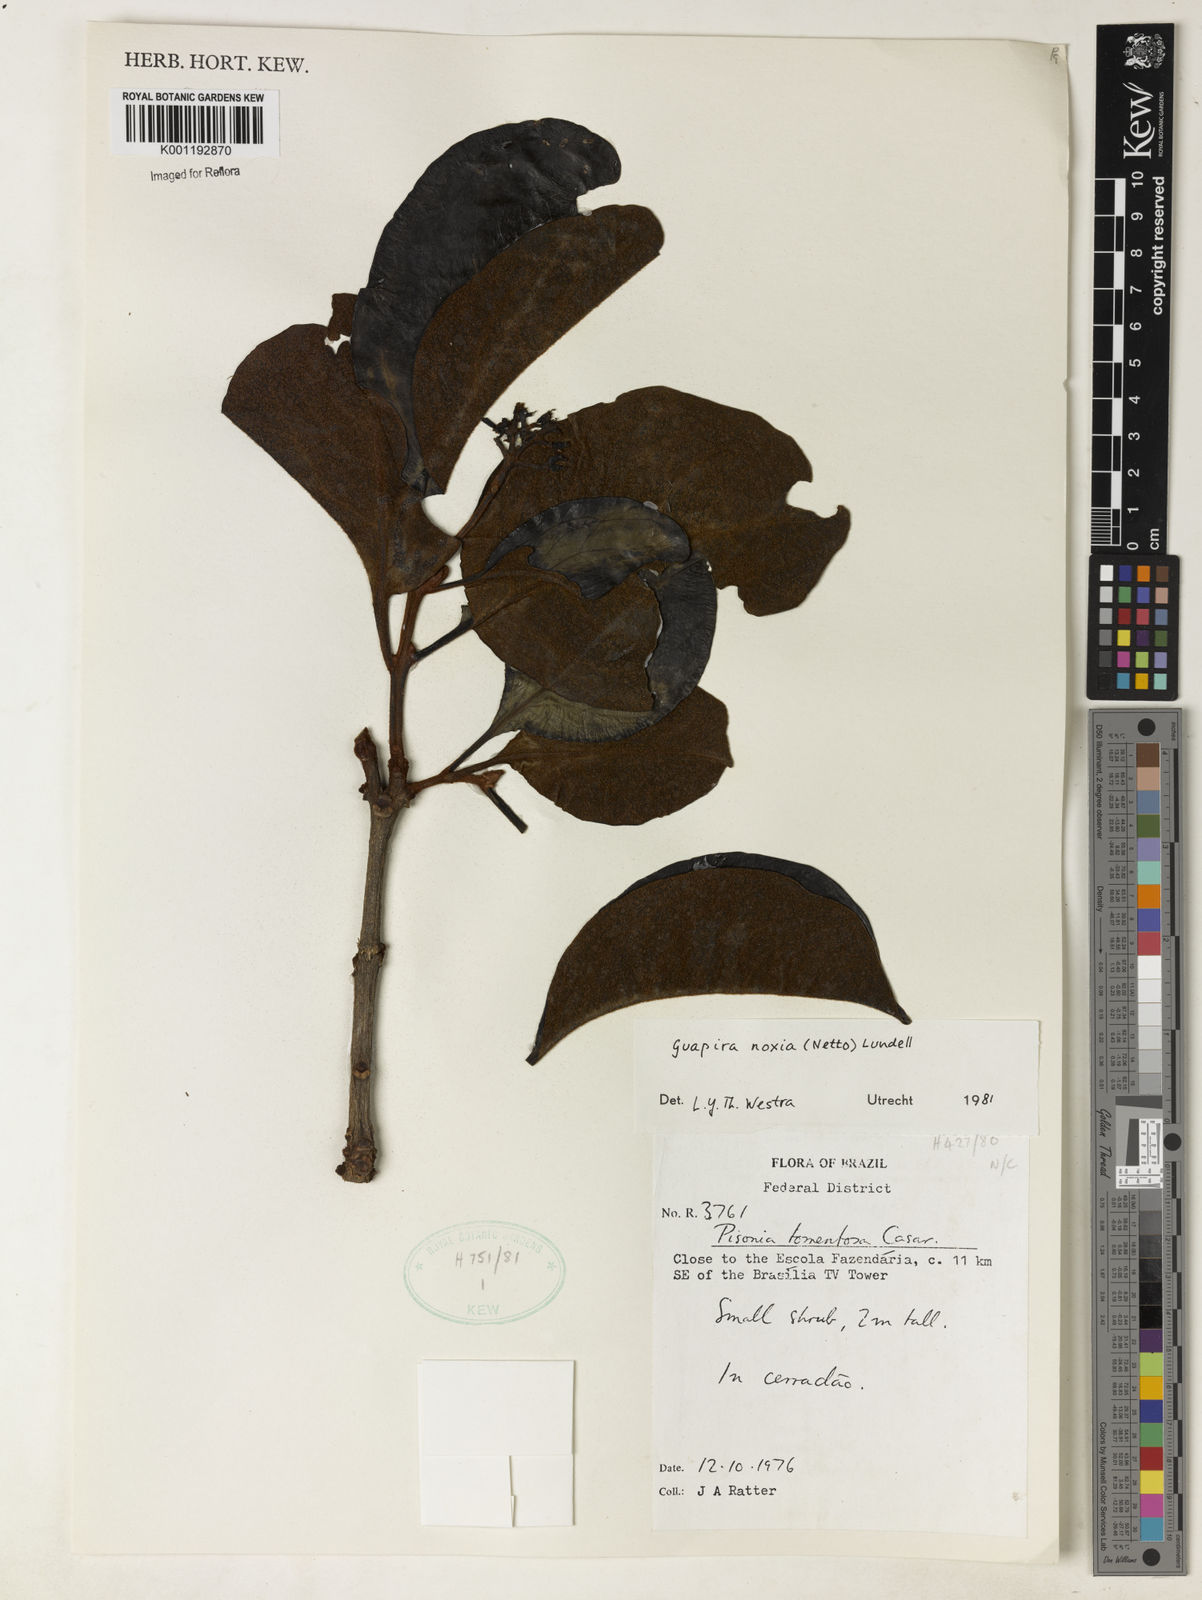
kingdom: Plantae
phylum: Tracheophyta
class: Magnoliopsida
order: Caryophyllales
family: Nyctaginaceae
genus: Guapira
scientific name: Guapira noxia
